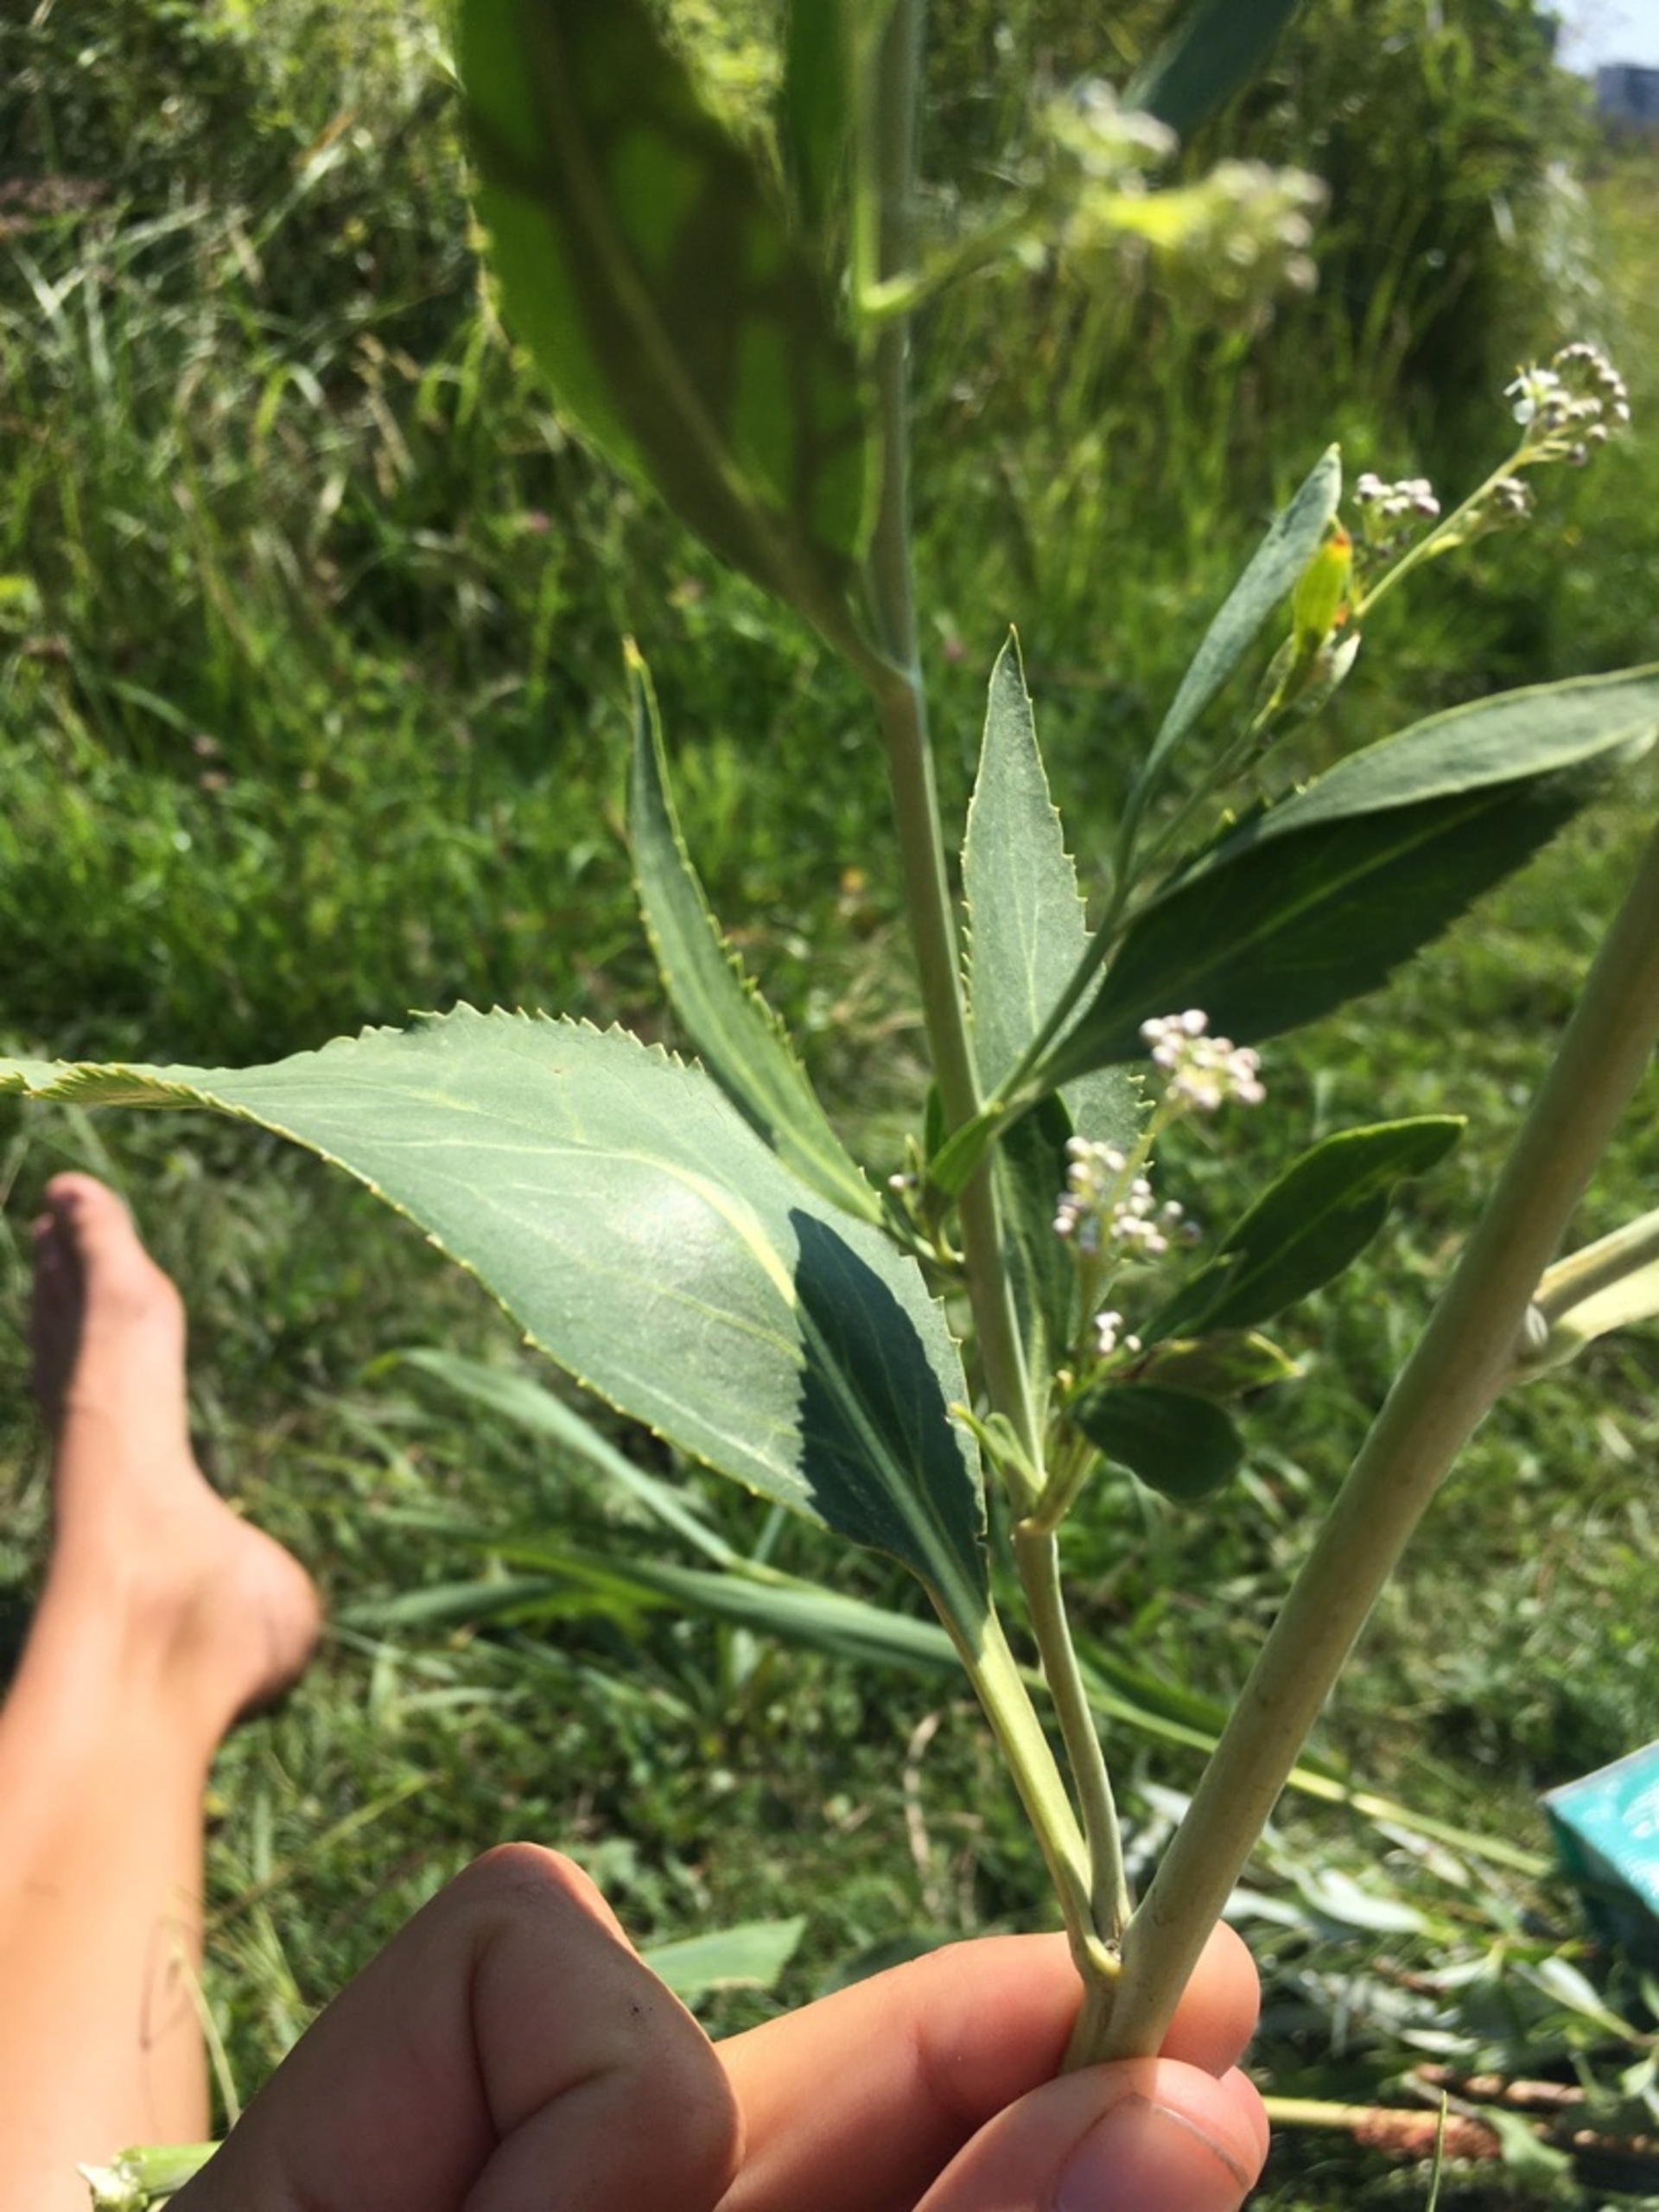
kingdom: Plantae
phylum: Tracheophyta
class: Magnoliopsida
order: Brassicales
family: Brassicaceae
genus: Lepidium
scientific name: Lepidium latifolium
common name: Strand-karse
